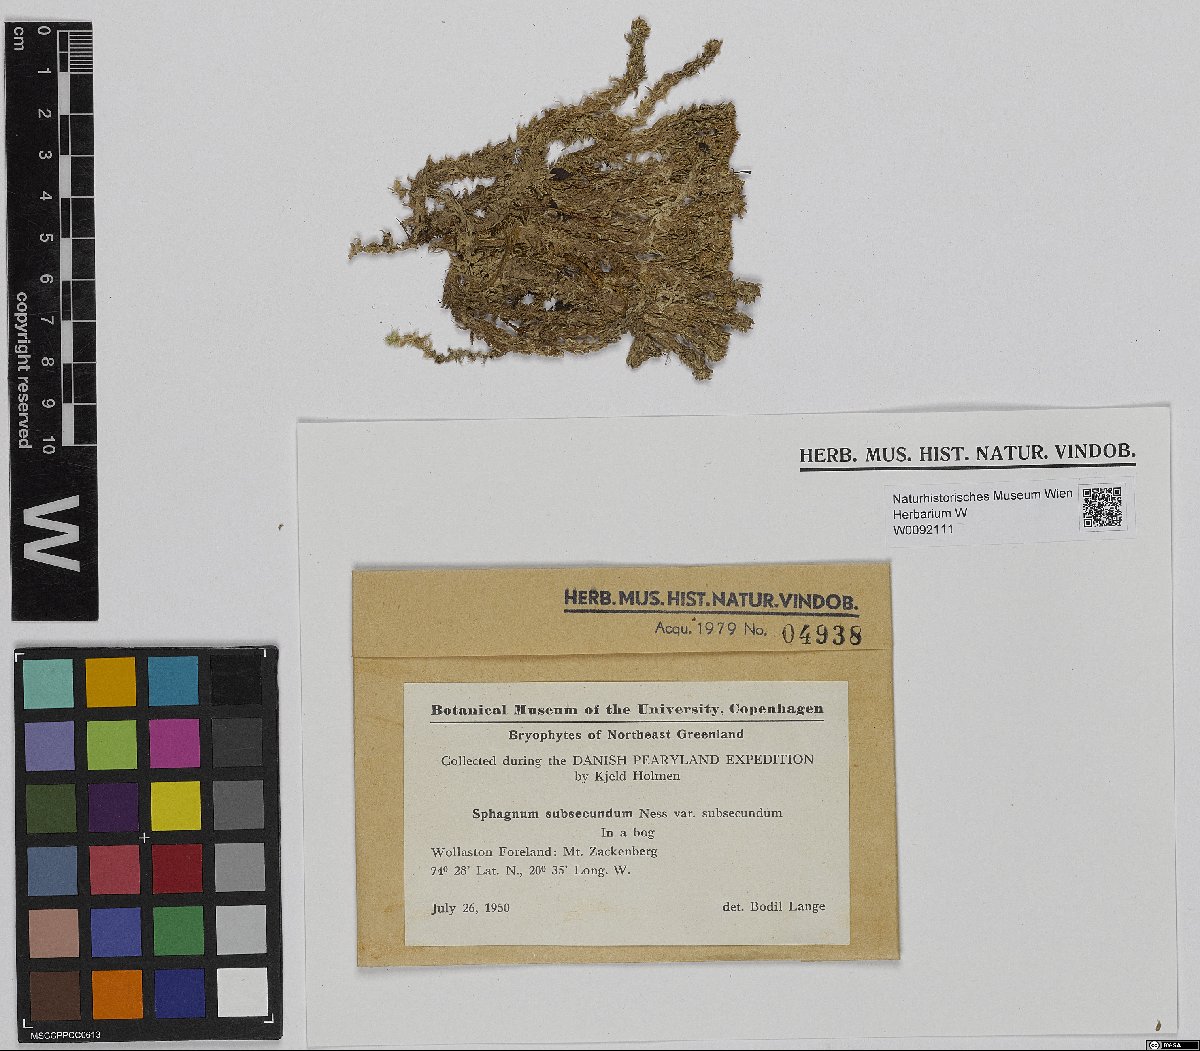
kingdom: Plantae
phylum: Bryophyta
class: Sphagnopsida
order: Sphagnales
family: Sphagnaceae
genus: Sphagnum
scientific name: Sphagnum subsecundum
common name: Orange peat moss
